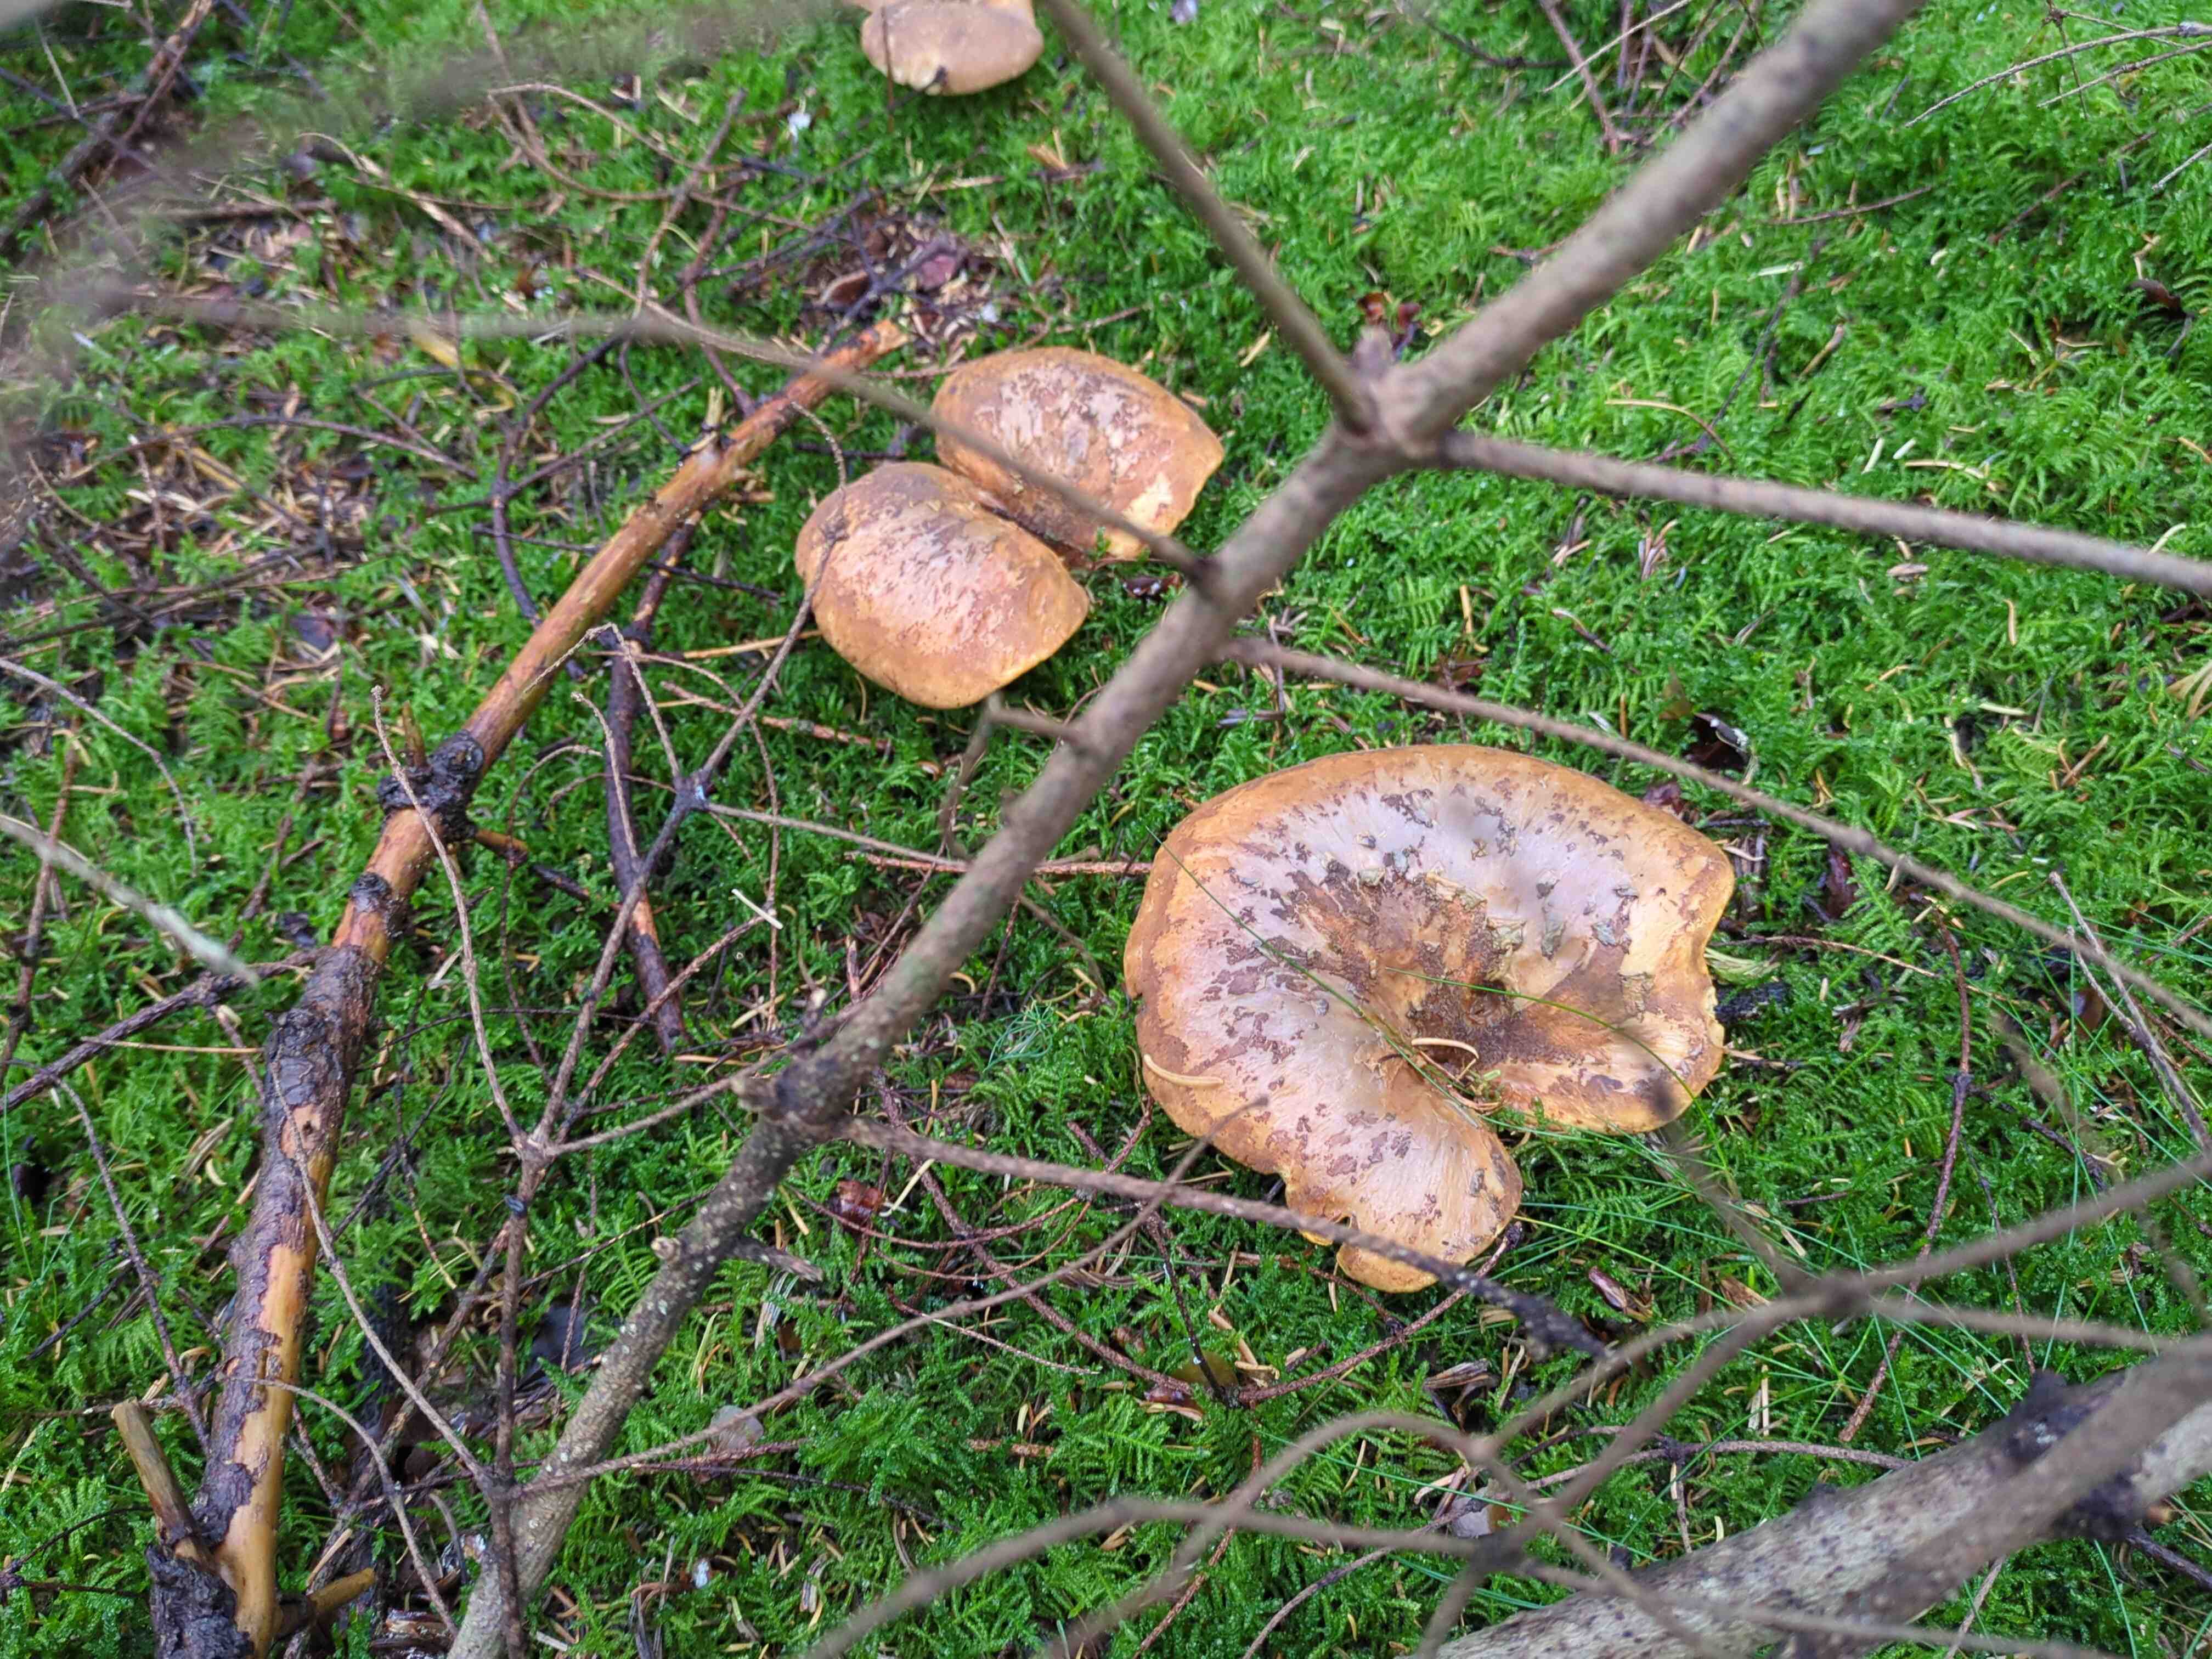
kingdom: Fungi
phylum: Basidiomycota
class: Agaricomycetes
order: Boletales
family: Tapinellaceae
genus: Tapinella
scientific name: Tapinella atrotomentosa
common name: sortfiltet viftesvamp
